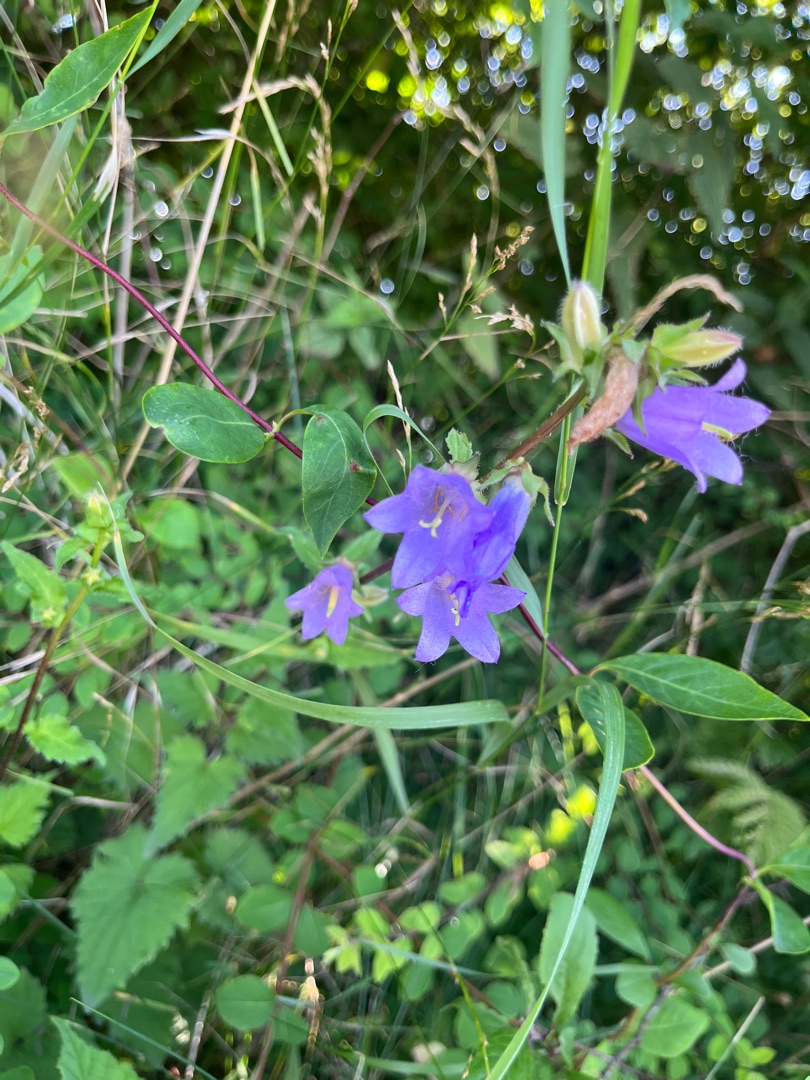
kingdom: Plantae
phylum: Tracheophyta
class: Magnoliopsida
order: Asterales
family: Campanulaceae
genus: Campanula
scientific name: Campanula trachelium
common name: Nælde-klokke
